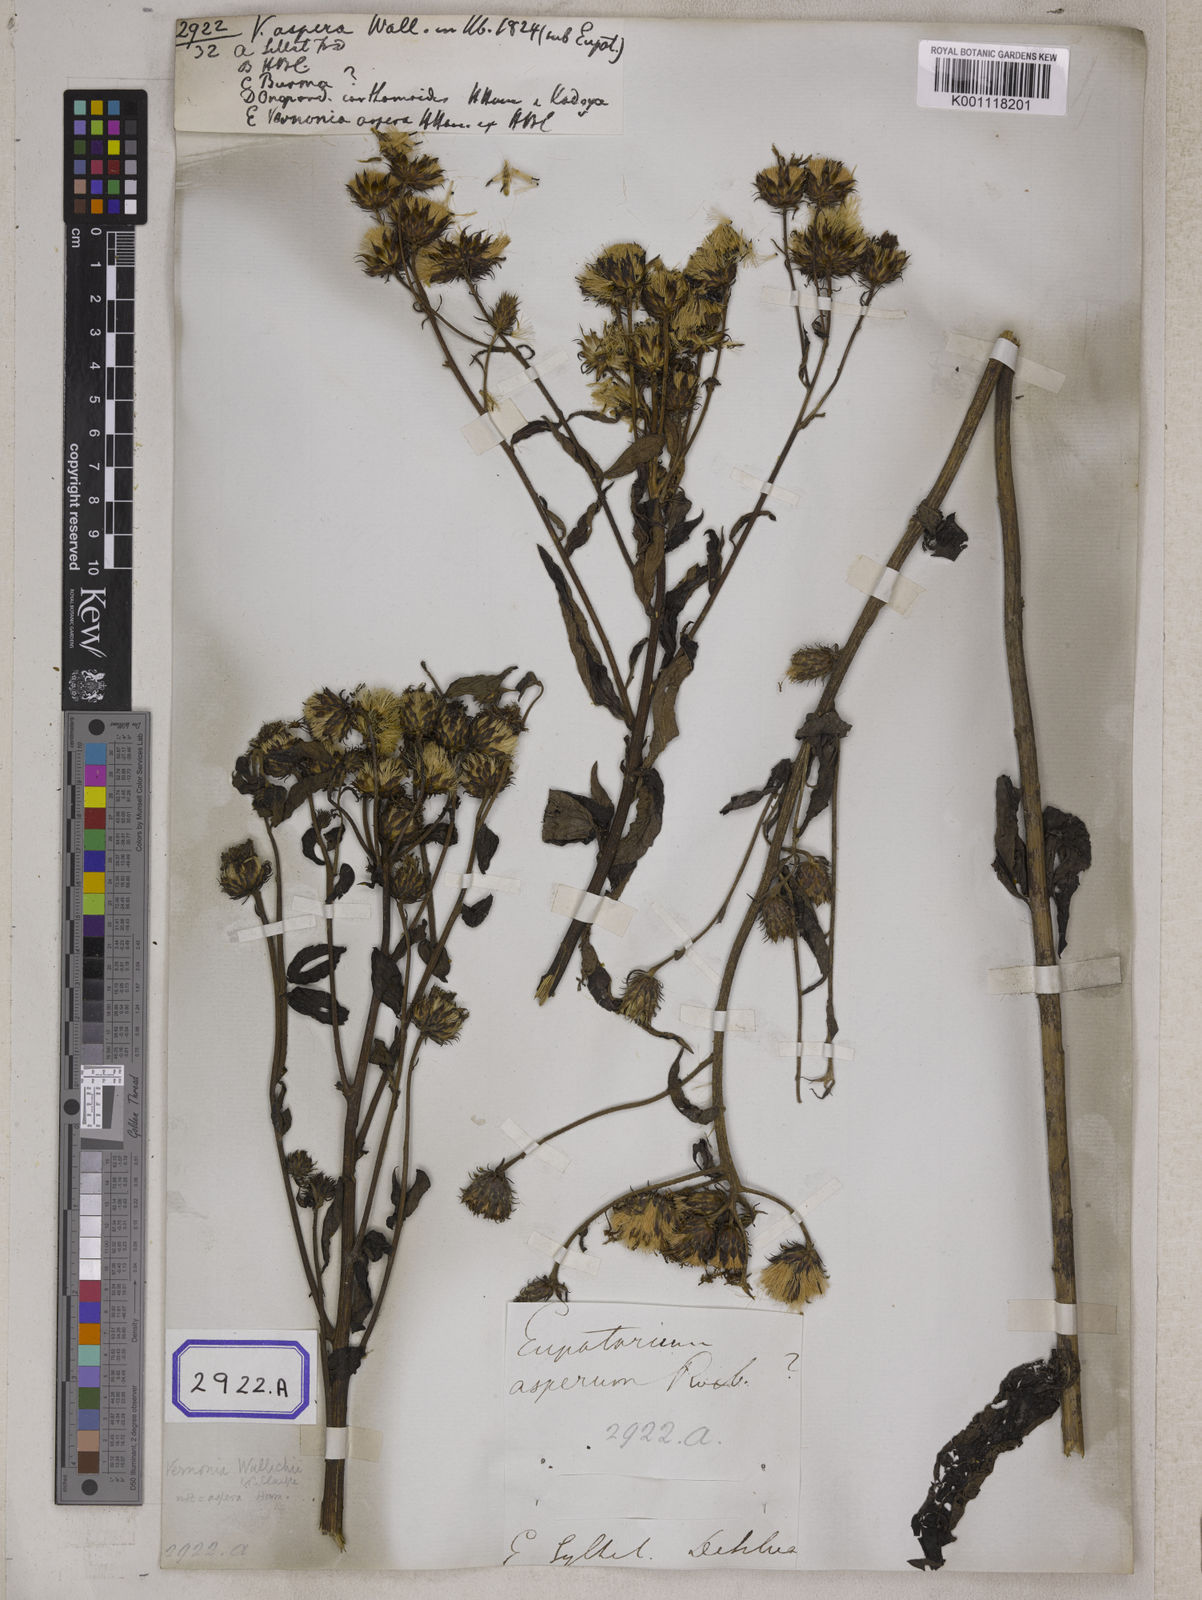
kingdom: Plantae
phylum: Tracheophyta
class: Magnoliopsida
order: Asterales
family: Asteraceae
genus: Vernonia
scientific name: Vernonia
